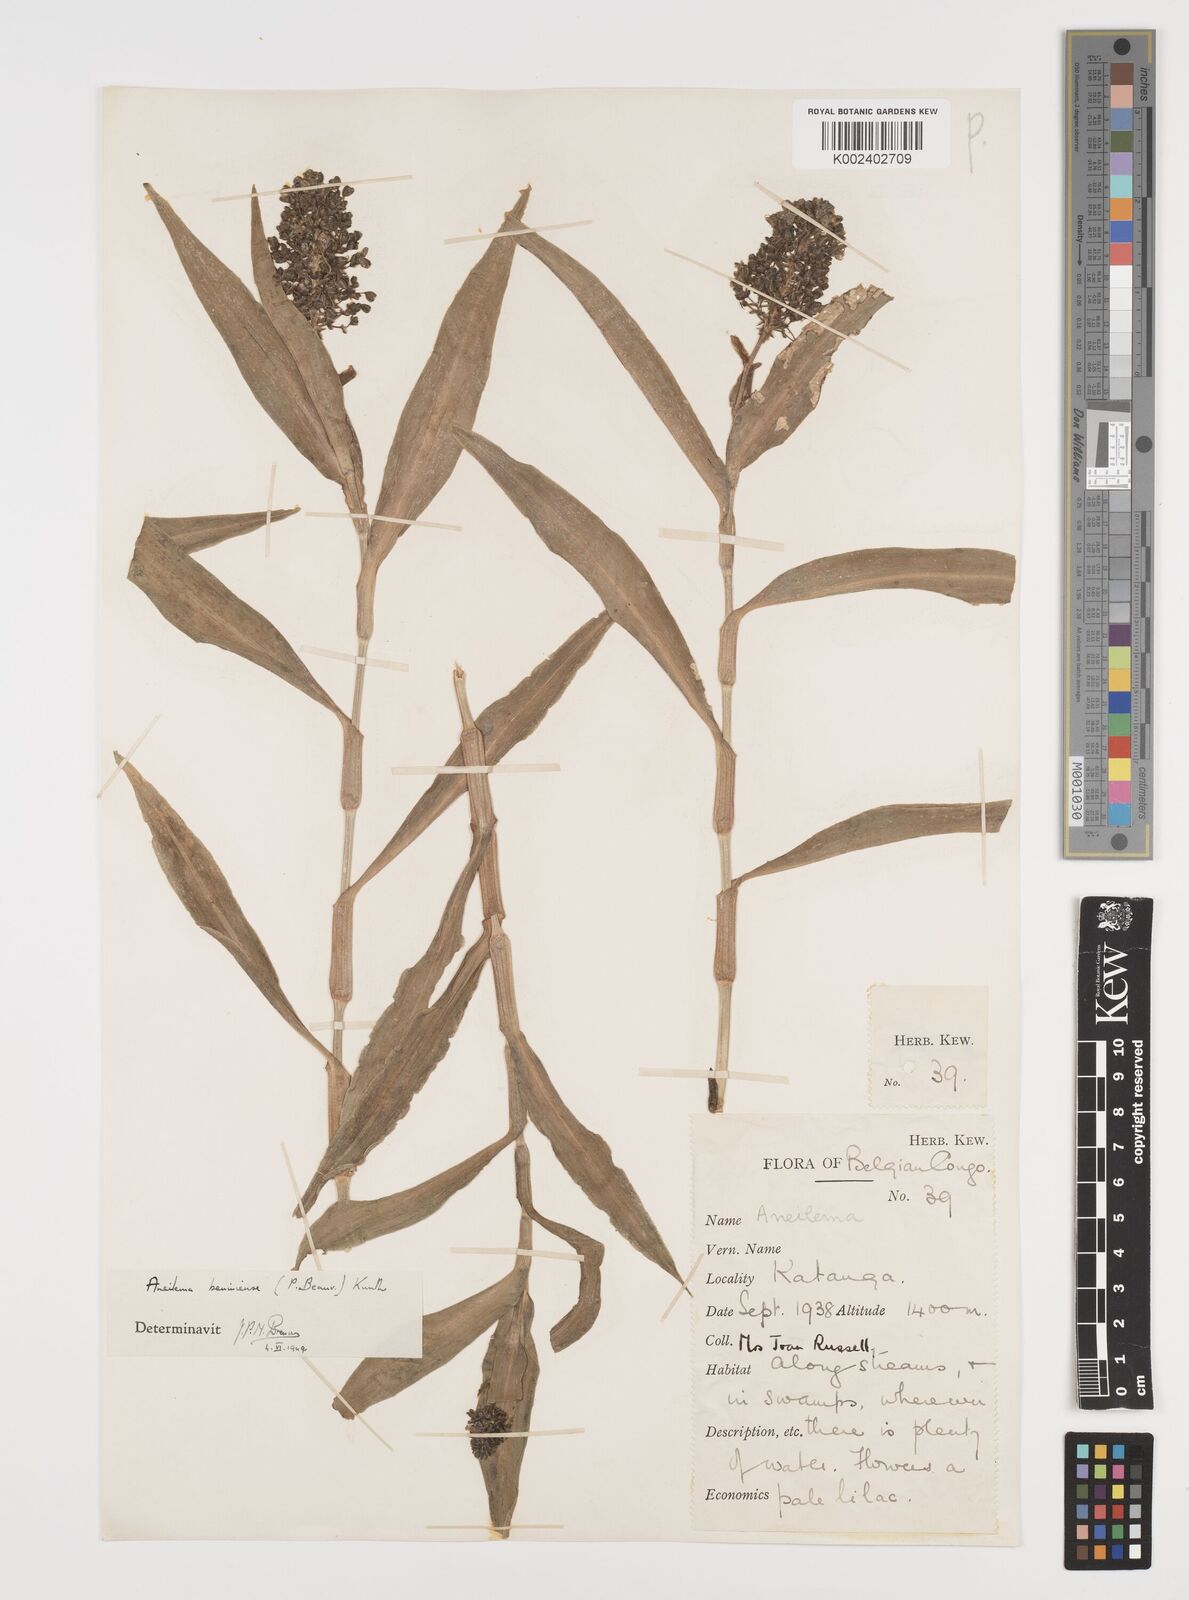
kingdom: Plantae
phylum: Tracheophyta
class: Liliopsida
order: Commelinales
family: Commelinaceae
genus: Aneilema
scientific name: Aneilema beniniense
